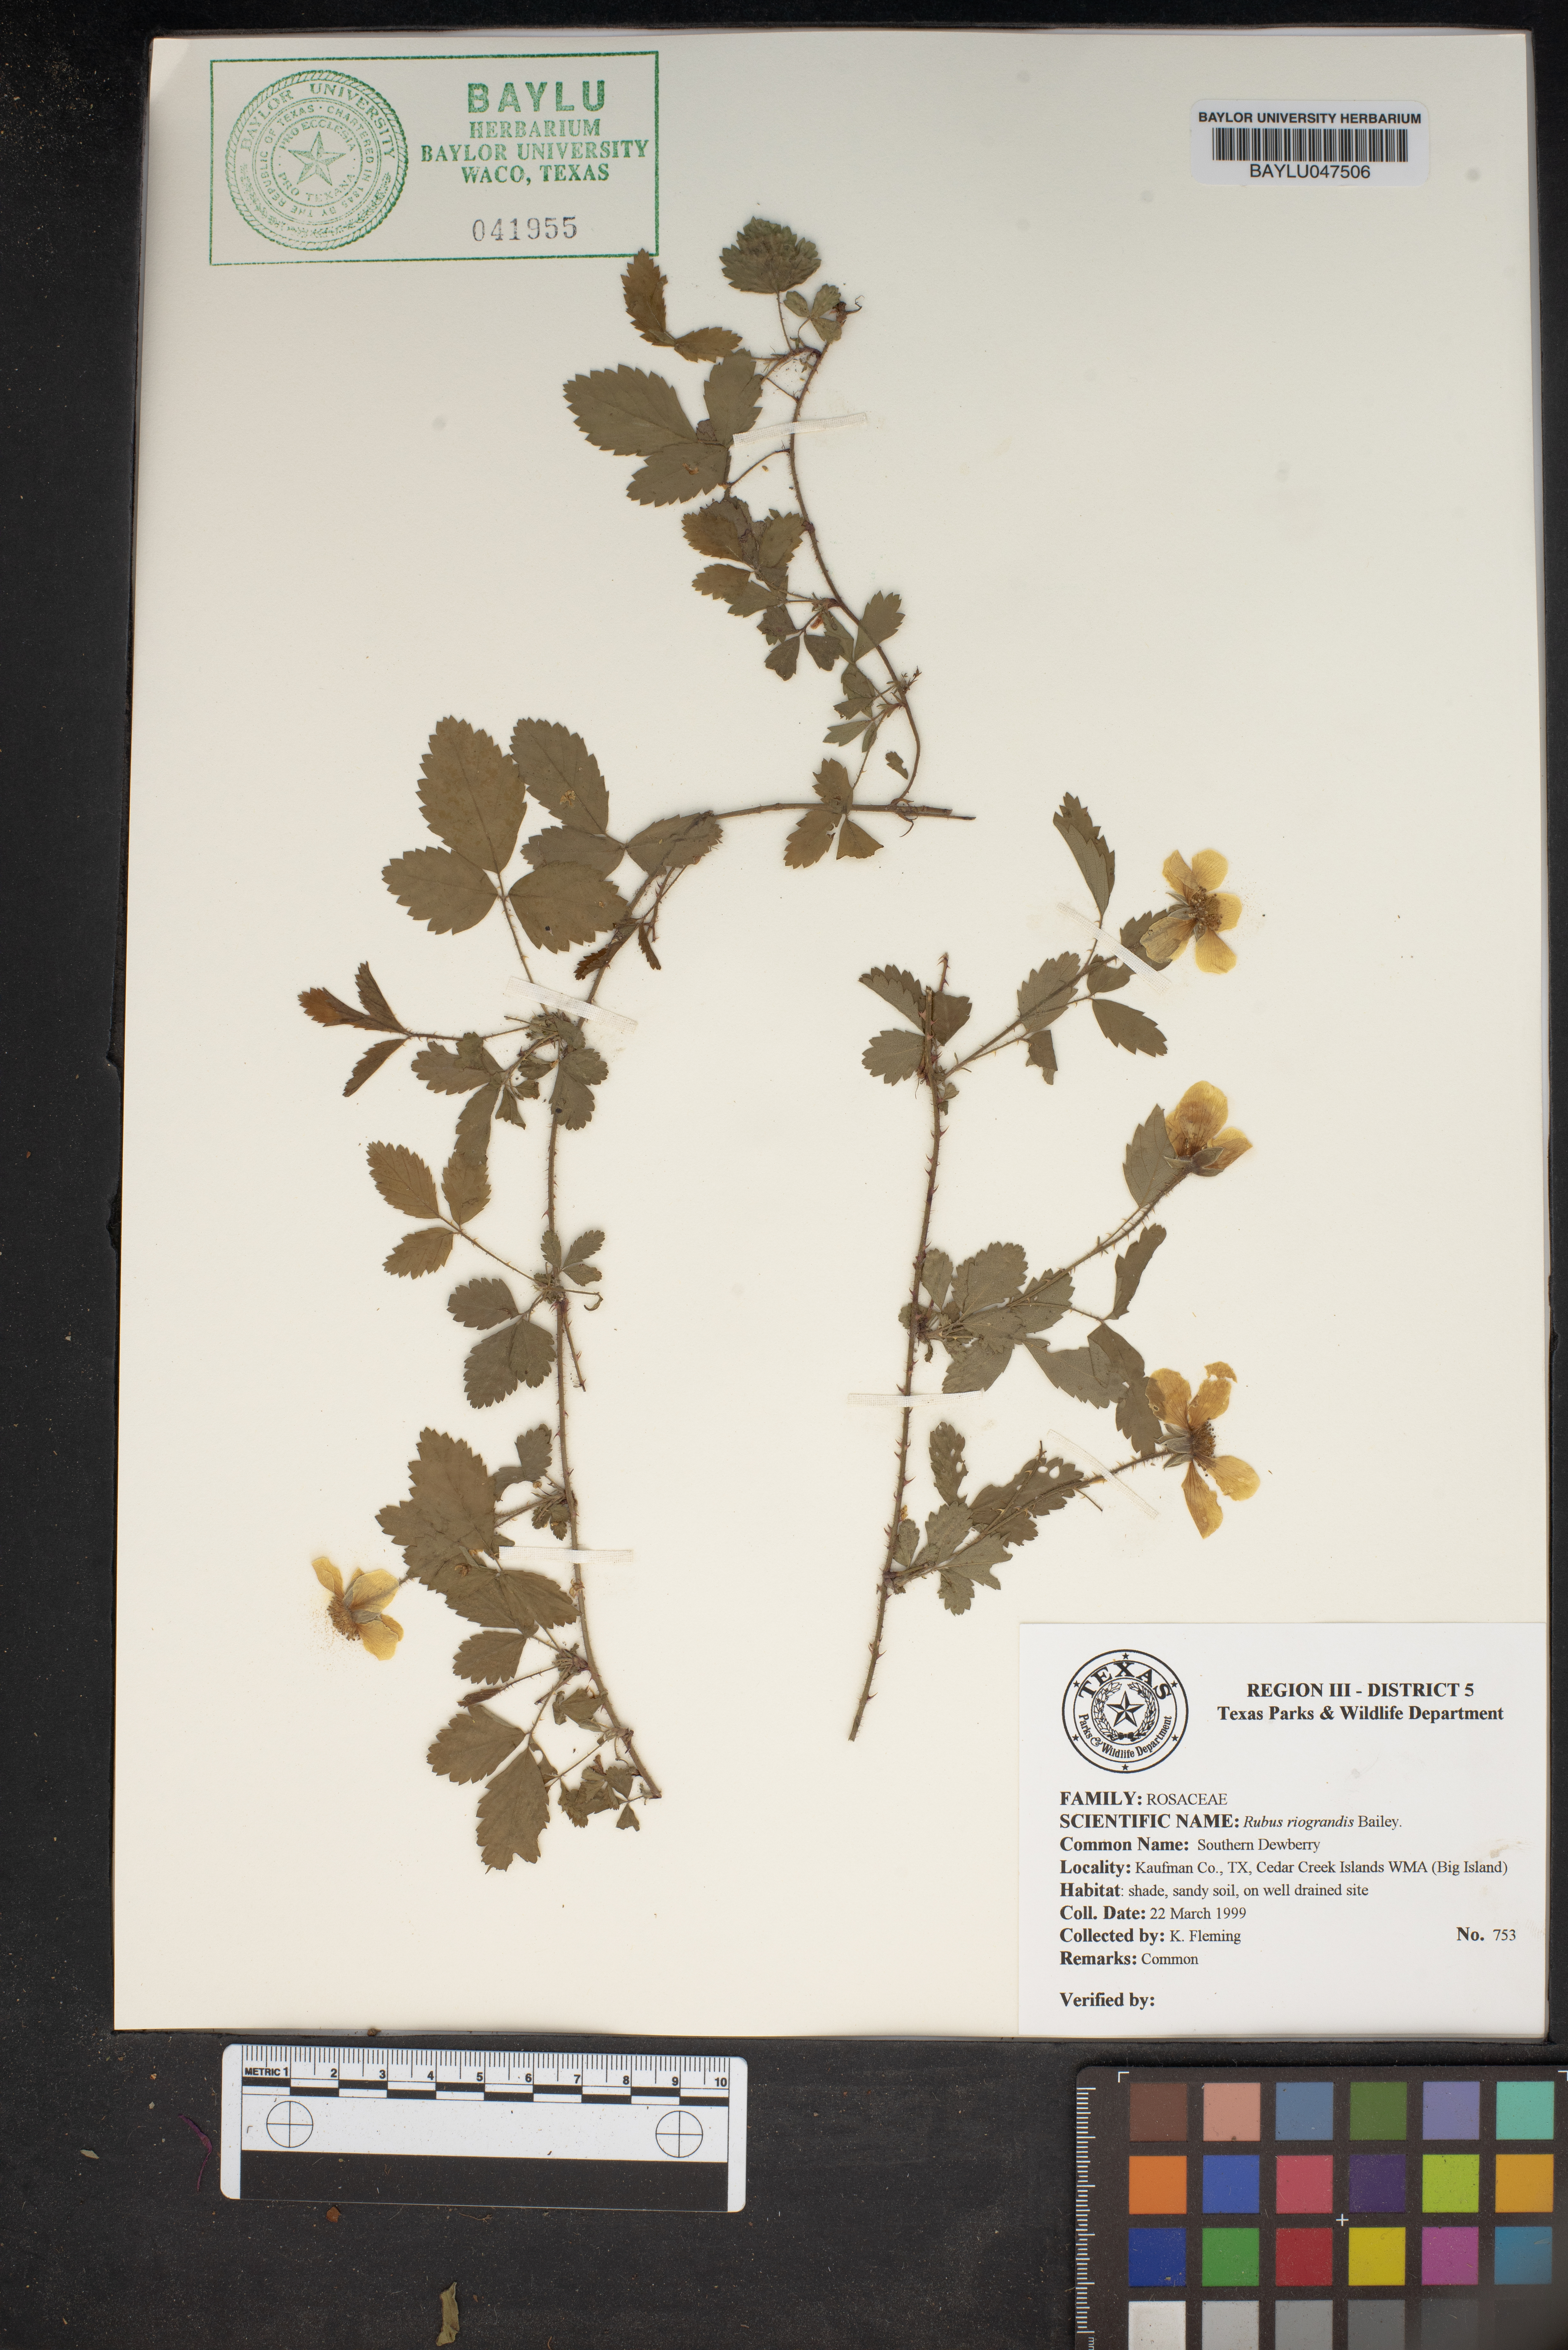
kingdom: Plantae
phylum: Tracheophyta
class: Magnoliopsida
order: Rosales
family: Rosaceae
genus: Rubus
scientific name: Rubus riograndis
